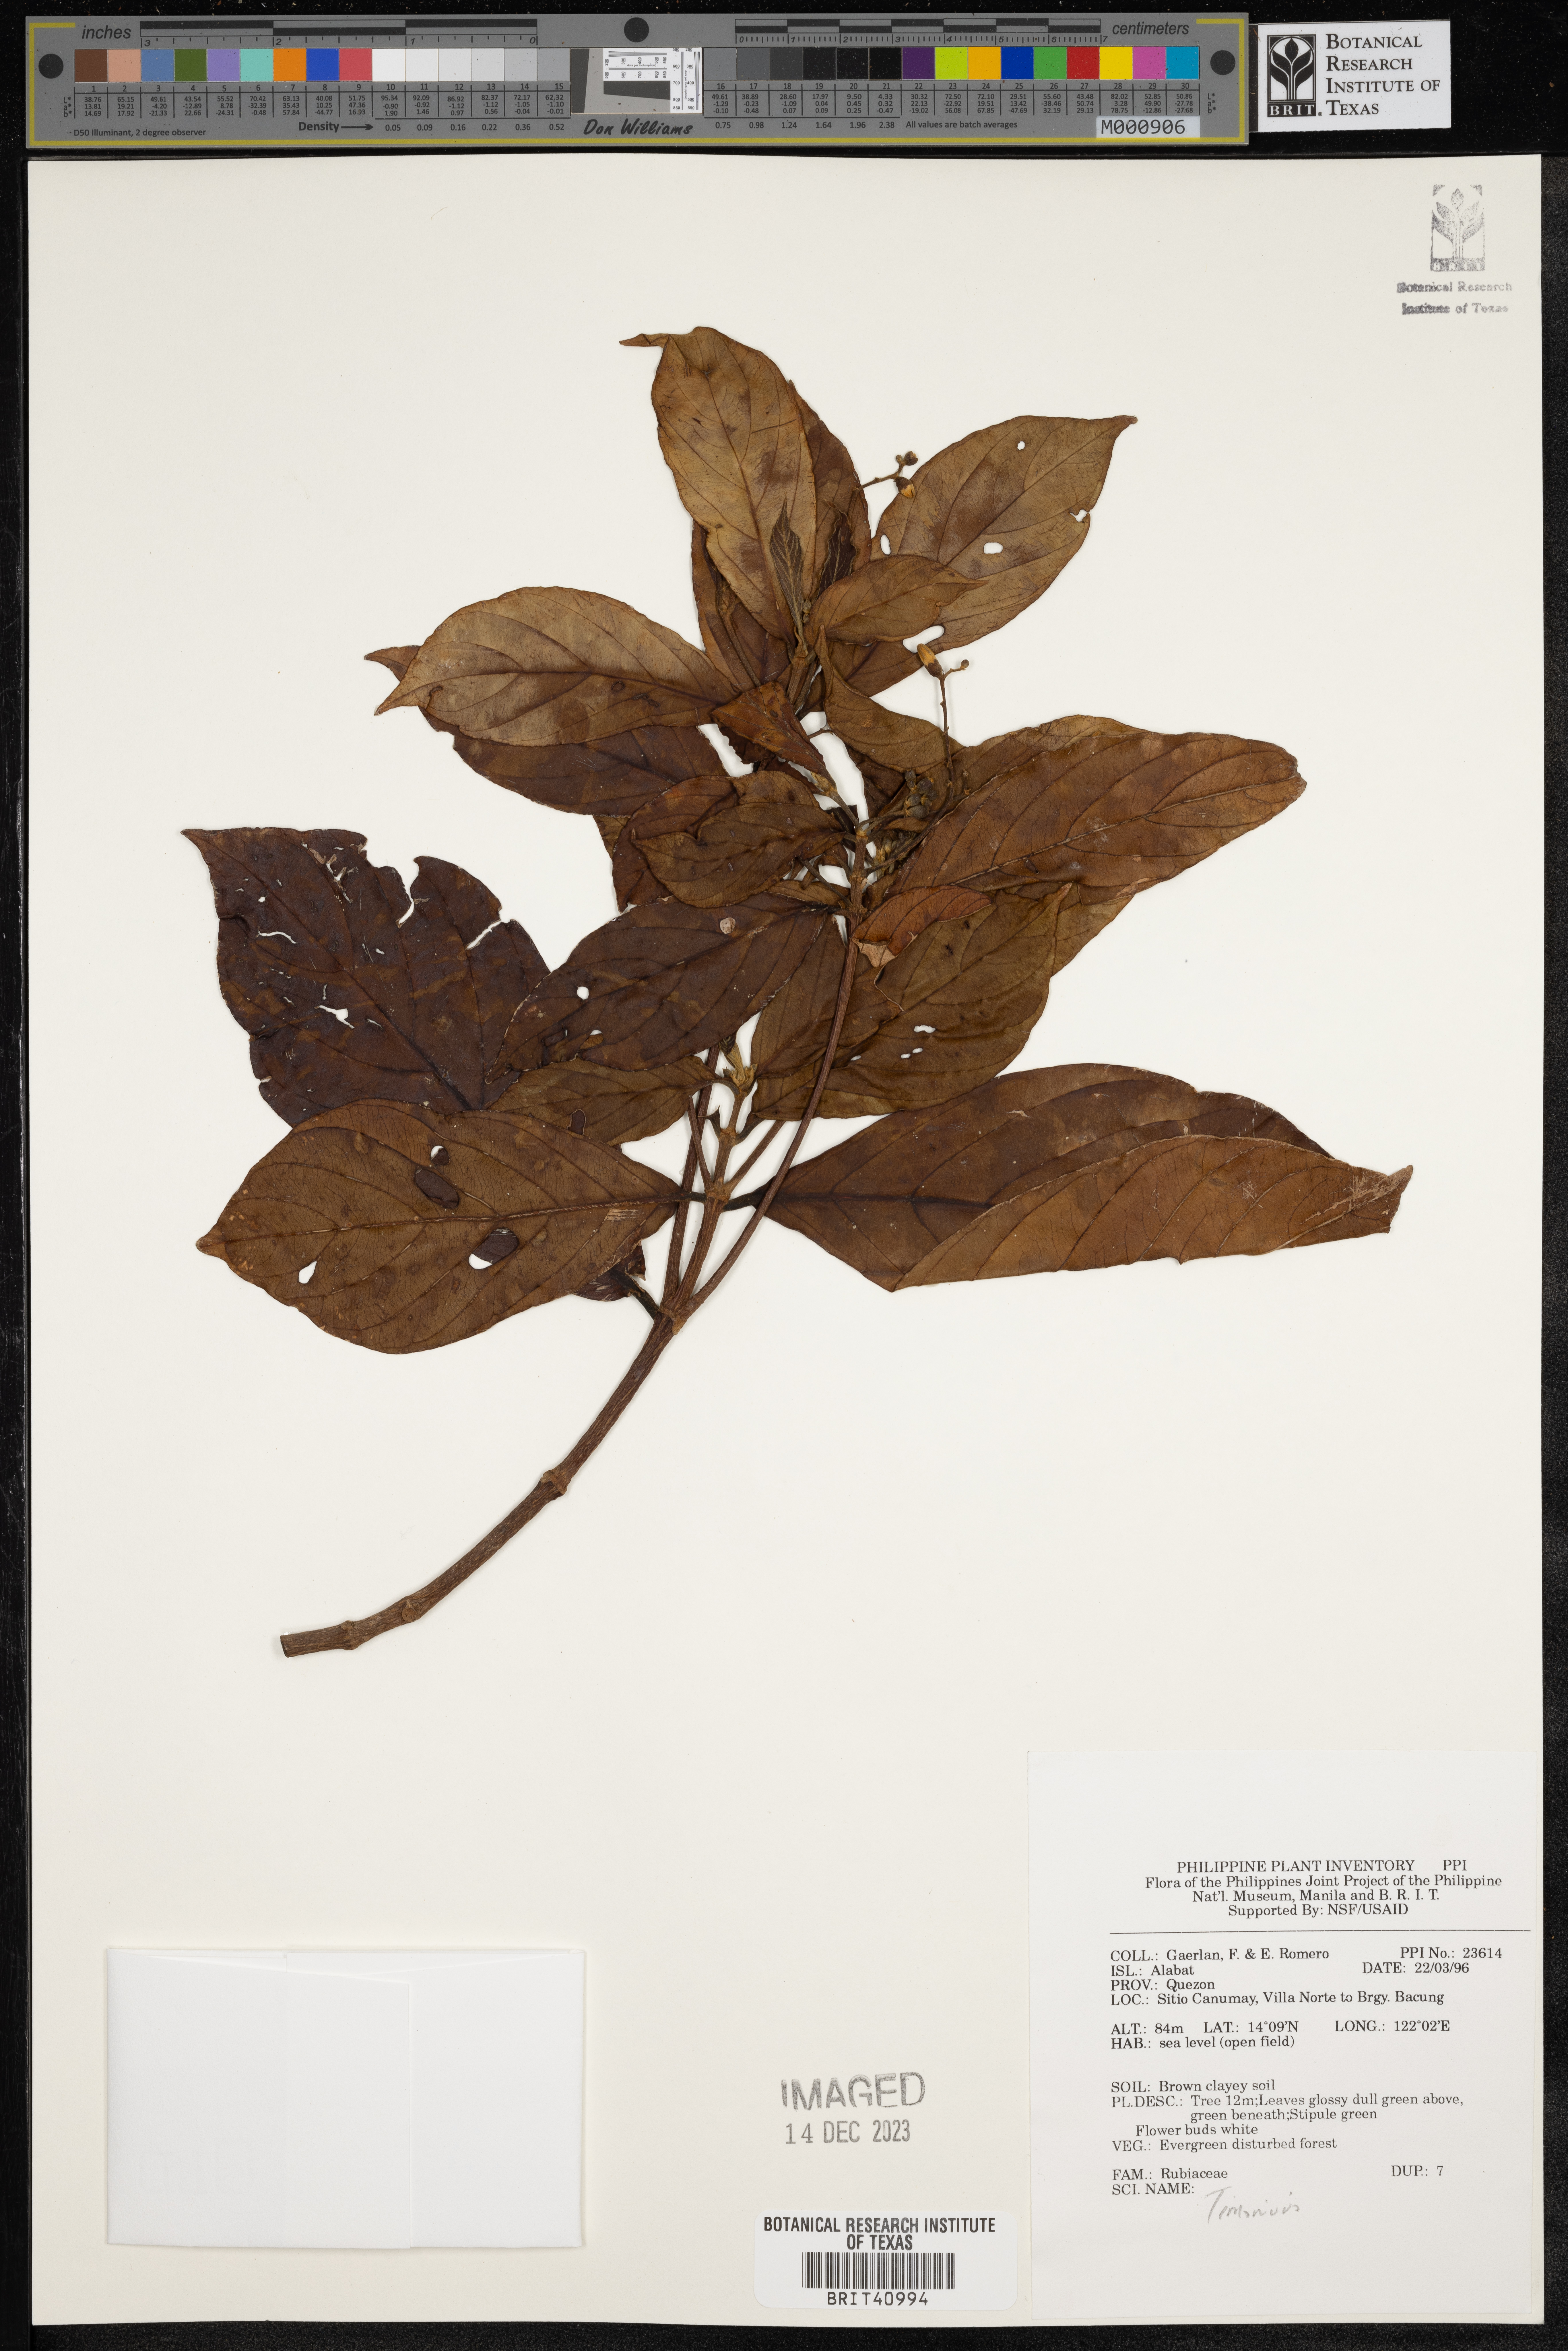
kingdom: Plantae
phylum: Tracheophyta
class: Magnoliopsida
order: Gentianales
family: Rubiaceae
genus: Timonius
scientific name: Timonius
